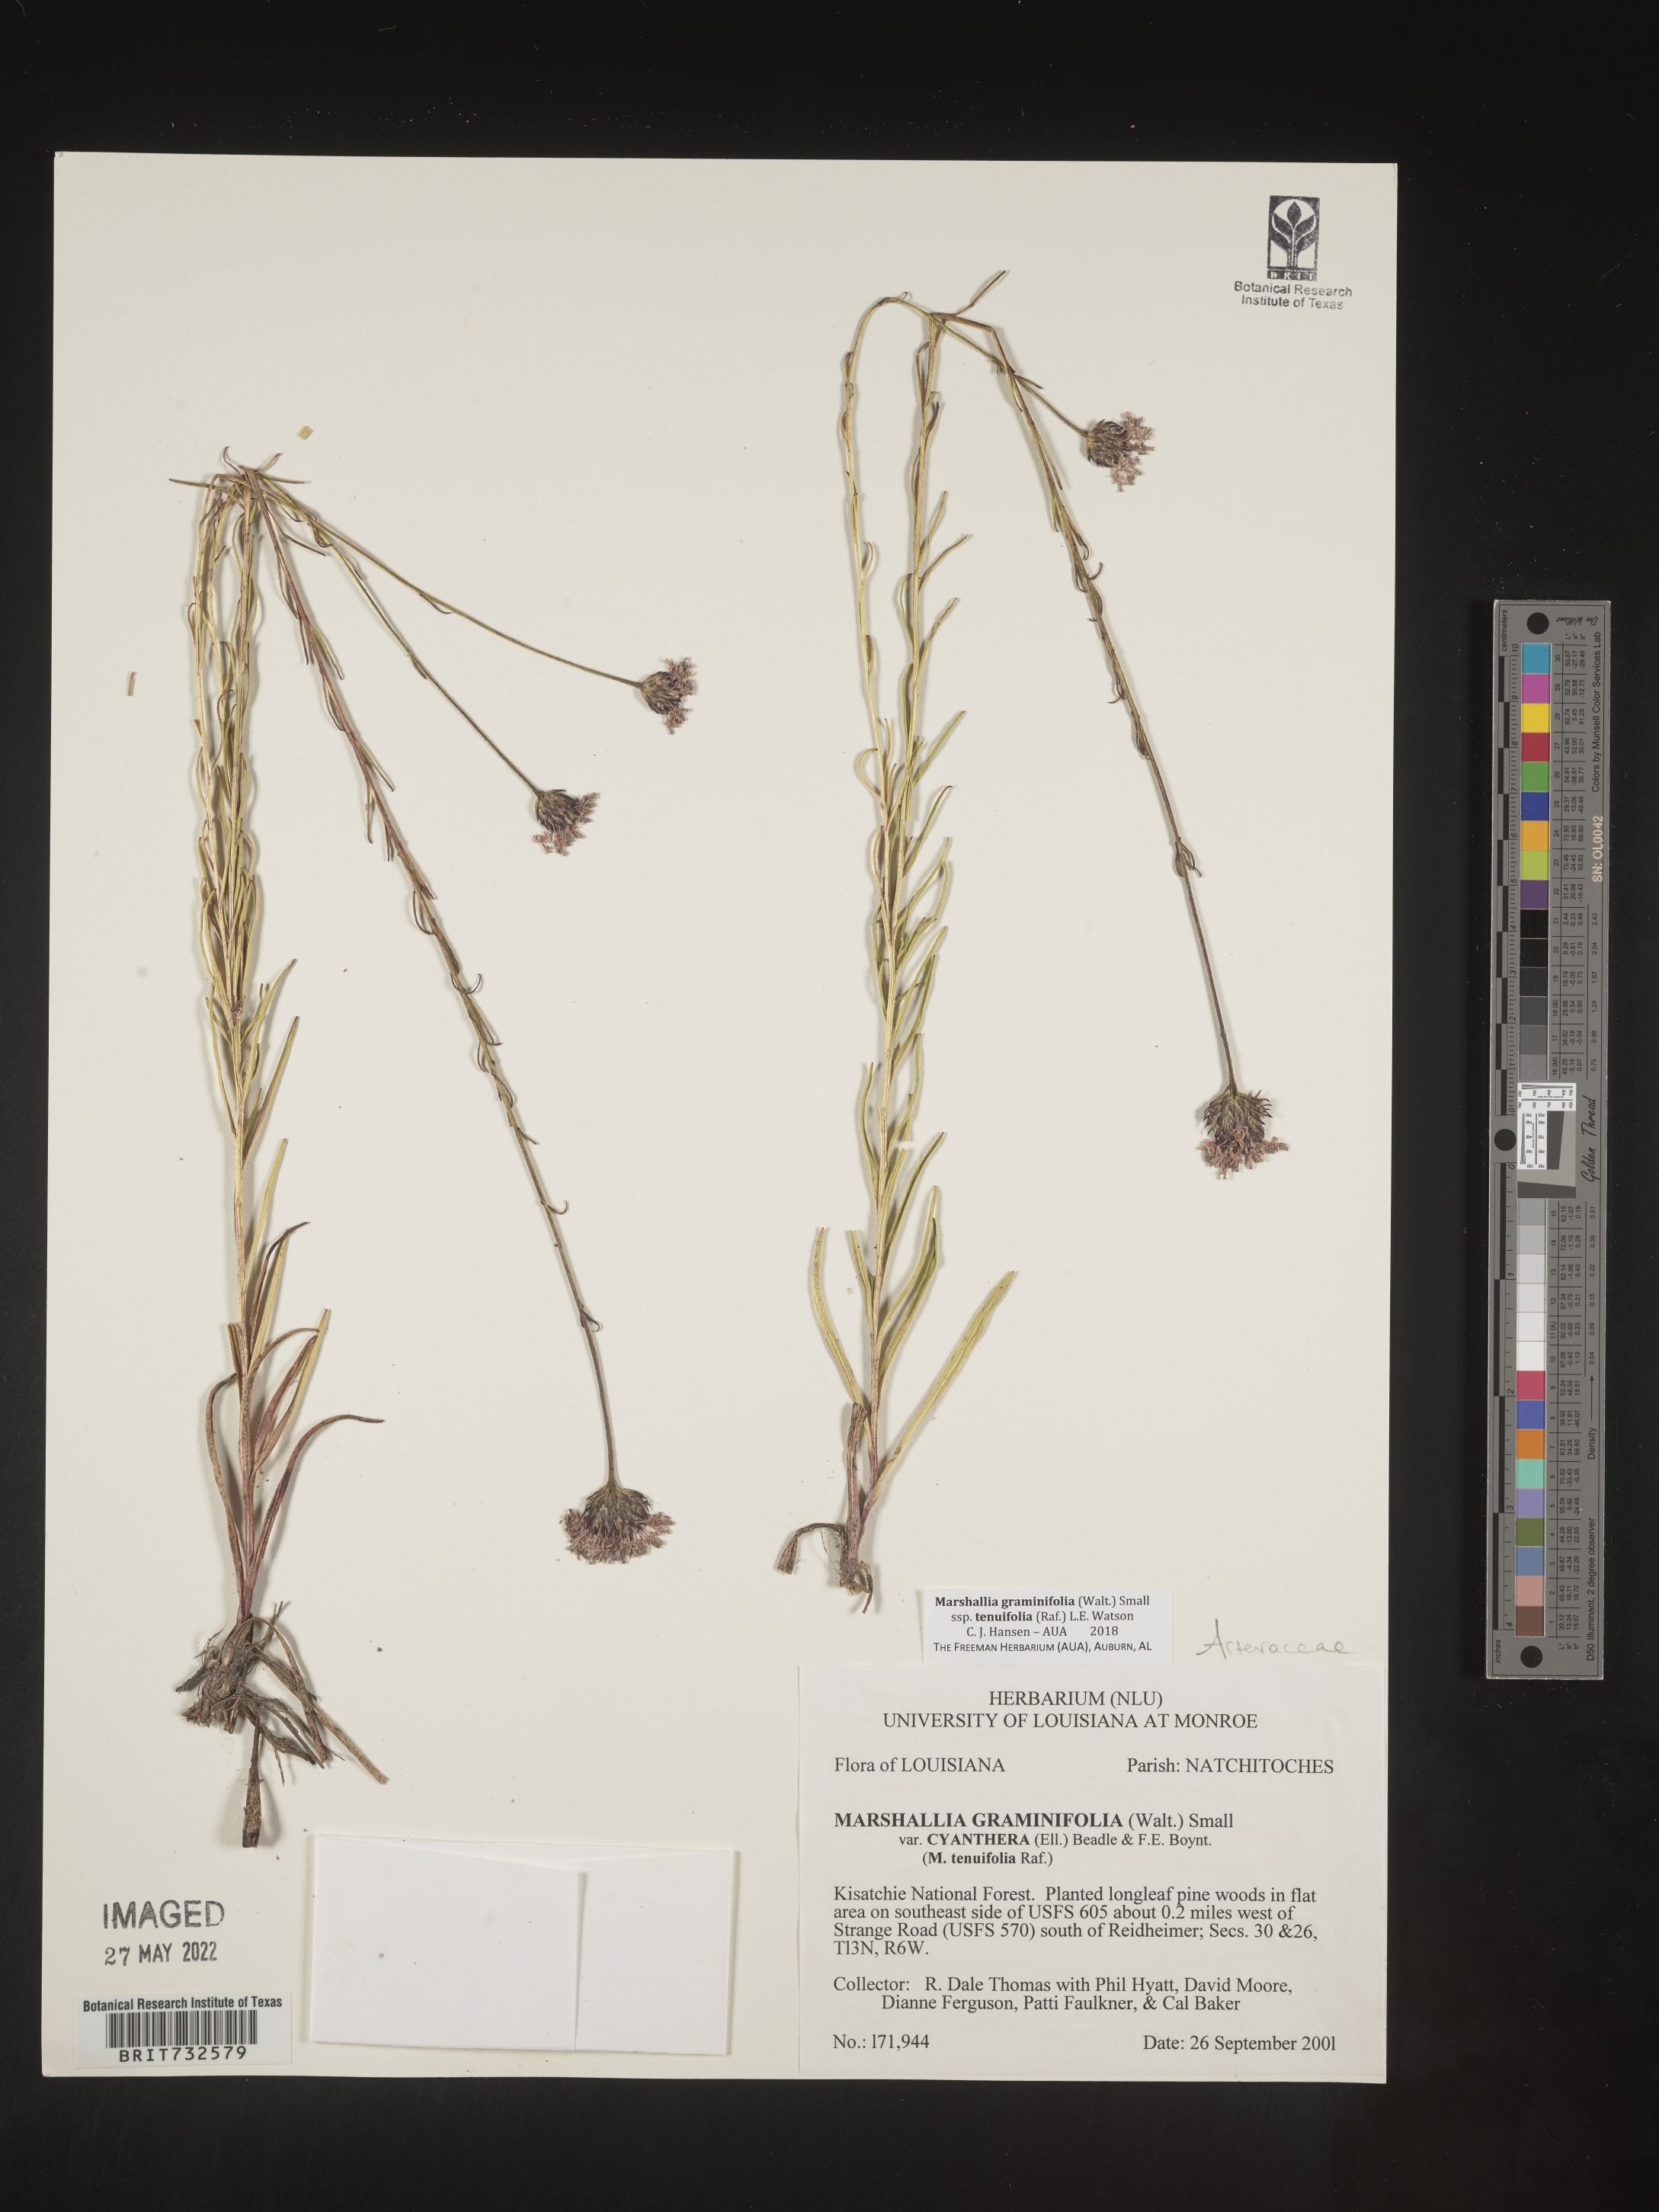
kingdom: Plantae
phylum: Tracheophyta
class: Magnoliopsida
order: Asterales
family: Asteraceae
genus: Marshallia
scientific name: Marshallia graminifolia
